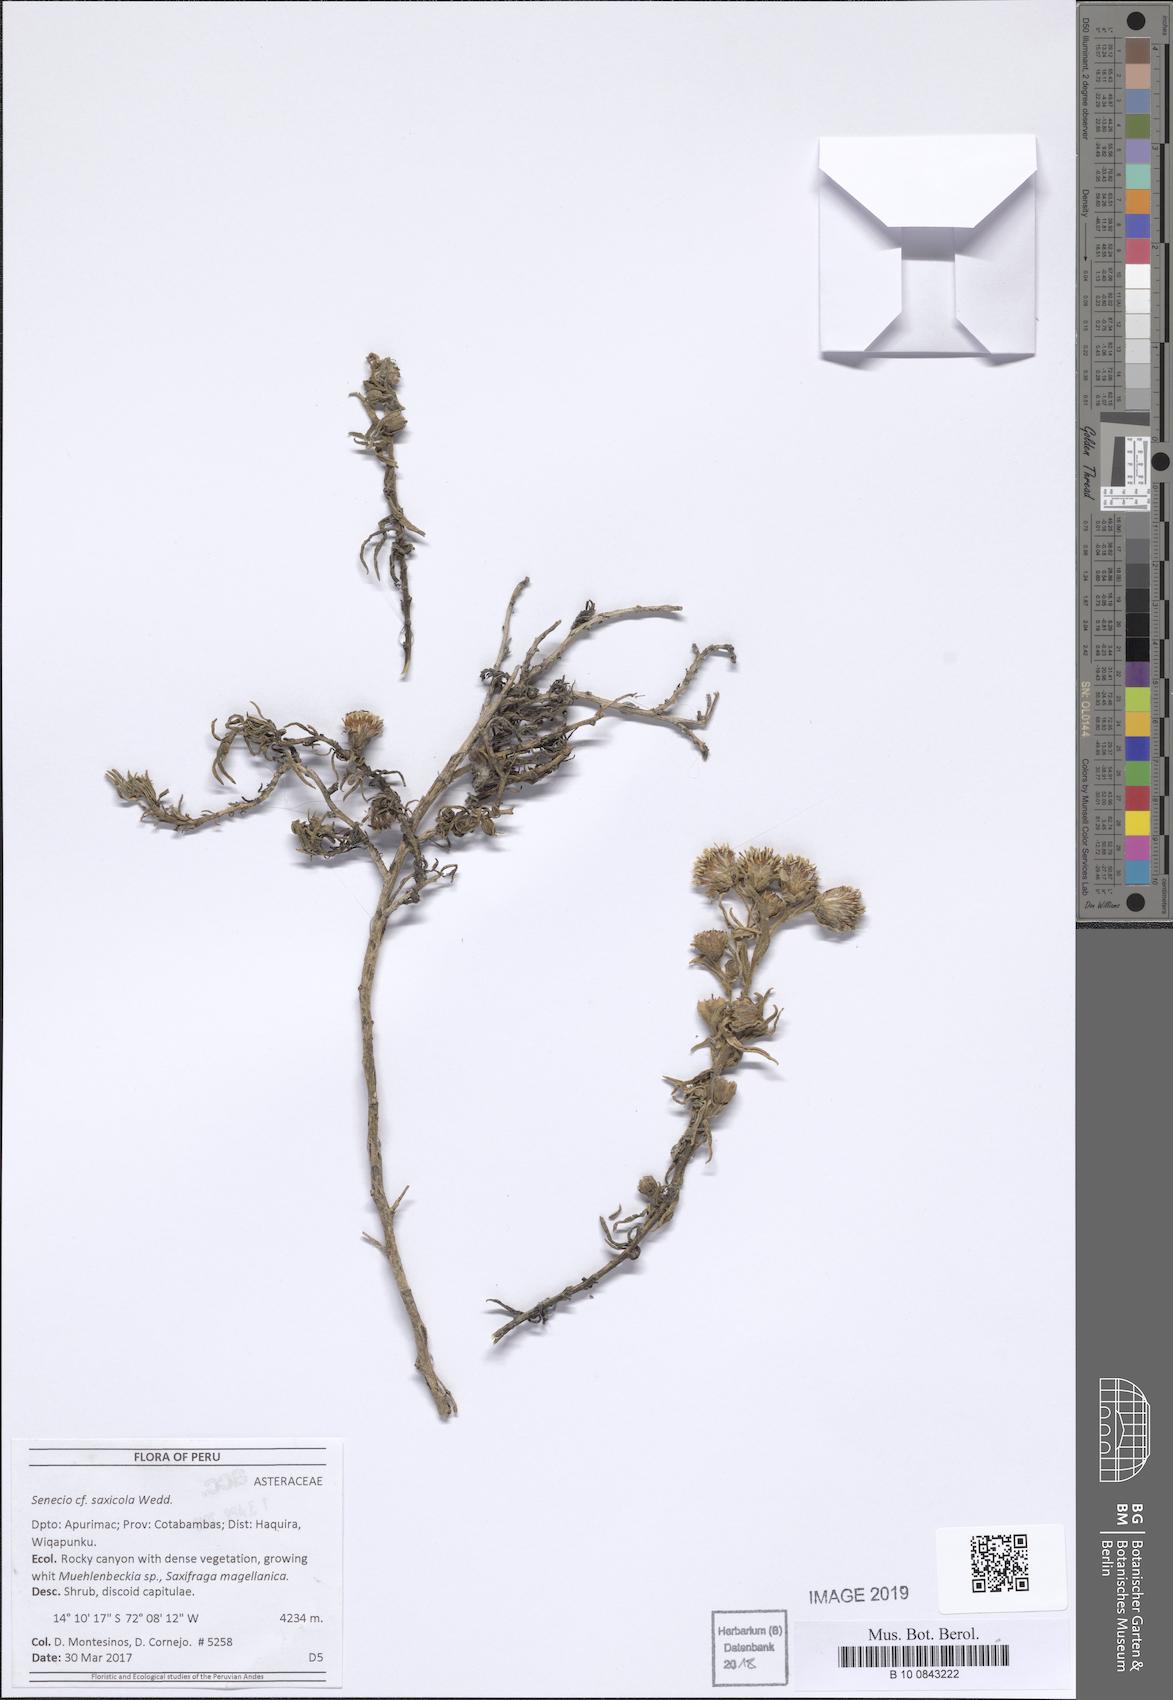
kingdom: Plantae
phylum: Tracheophyta
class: Magnoliopsida
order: Asterales
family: Asteraceae
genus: Senecio
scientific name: Senecio saxicolus
